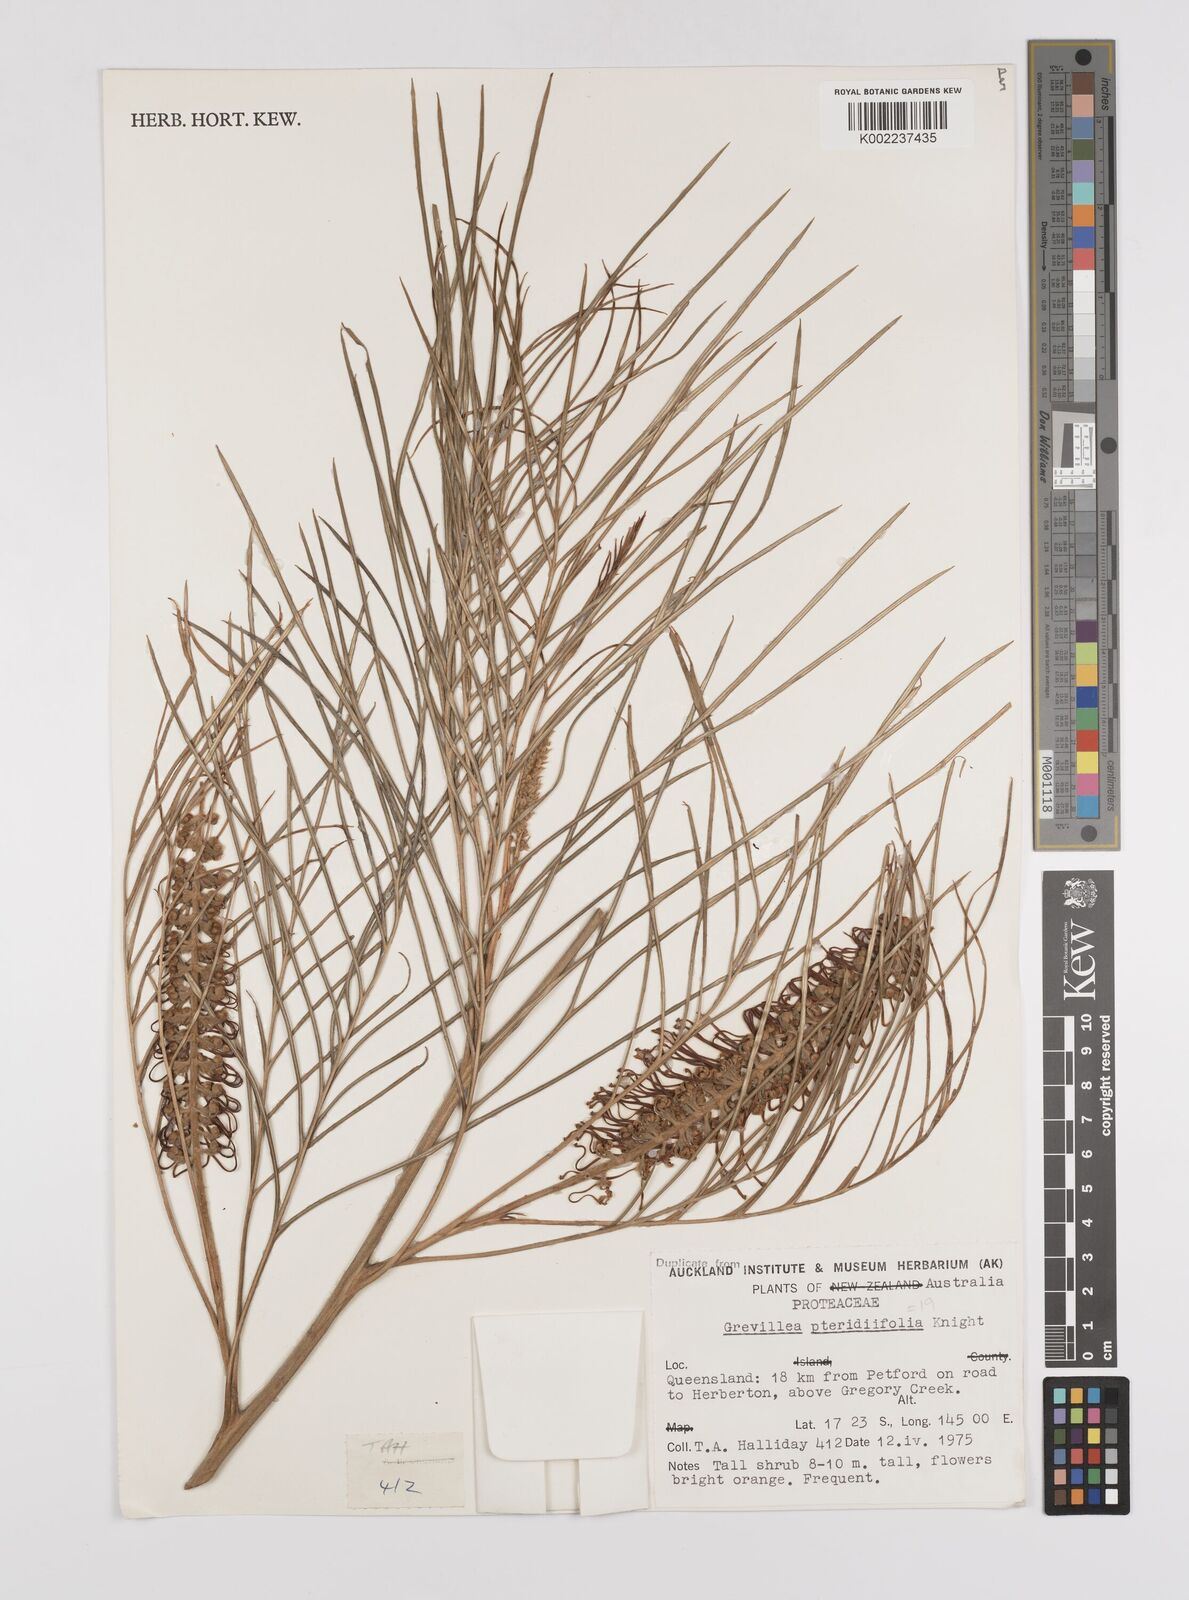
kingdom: Plantae
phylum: Tracheophyta
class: Magnoliopsida
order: Proteales
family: Proteaceae
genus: Grevillea
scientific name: Grevillea pteridifolia
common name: Golden grevillea
